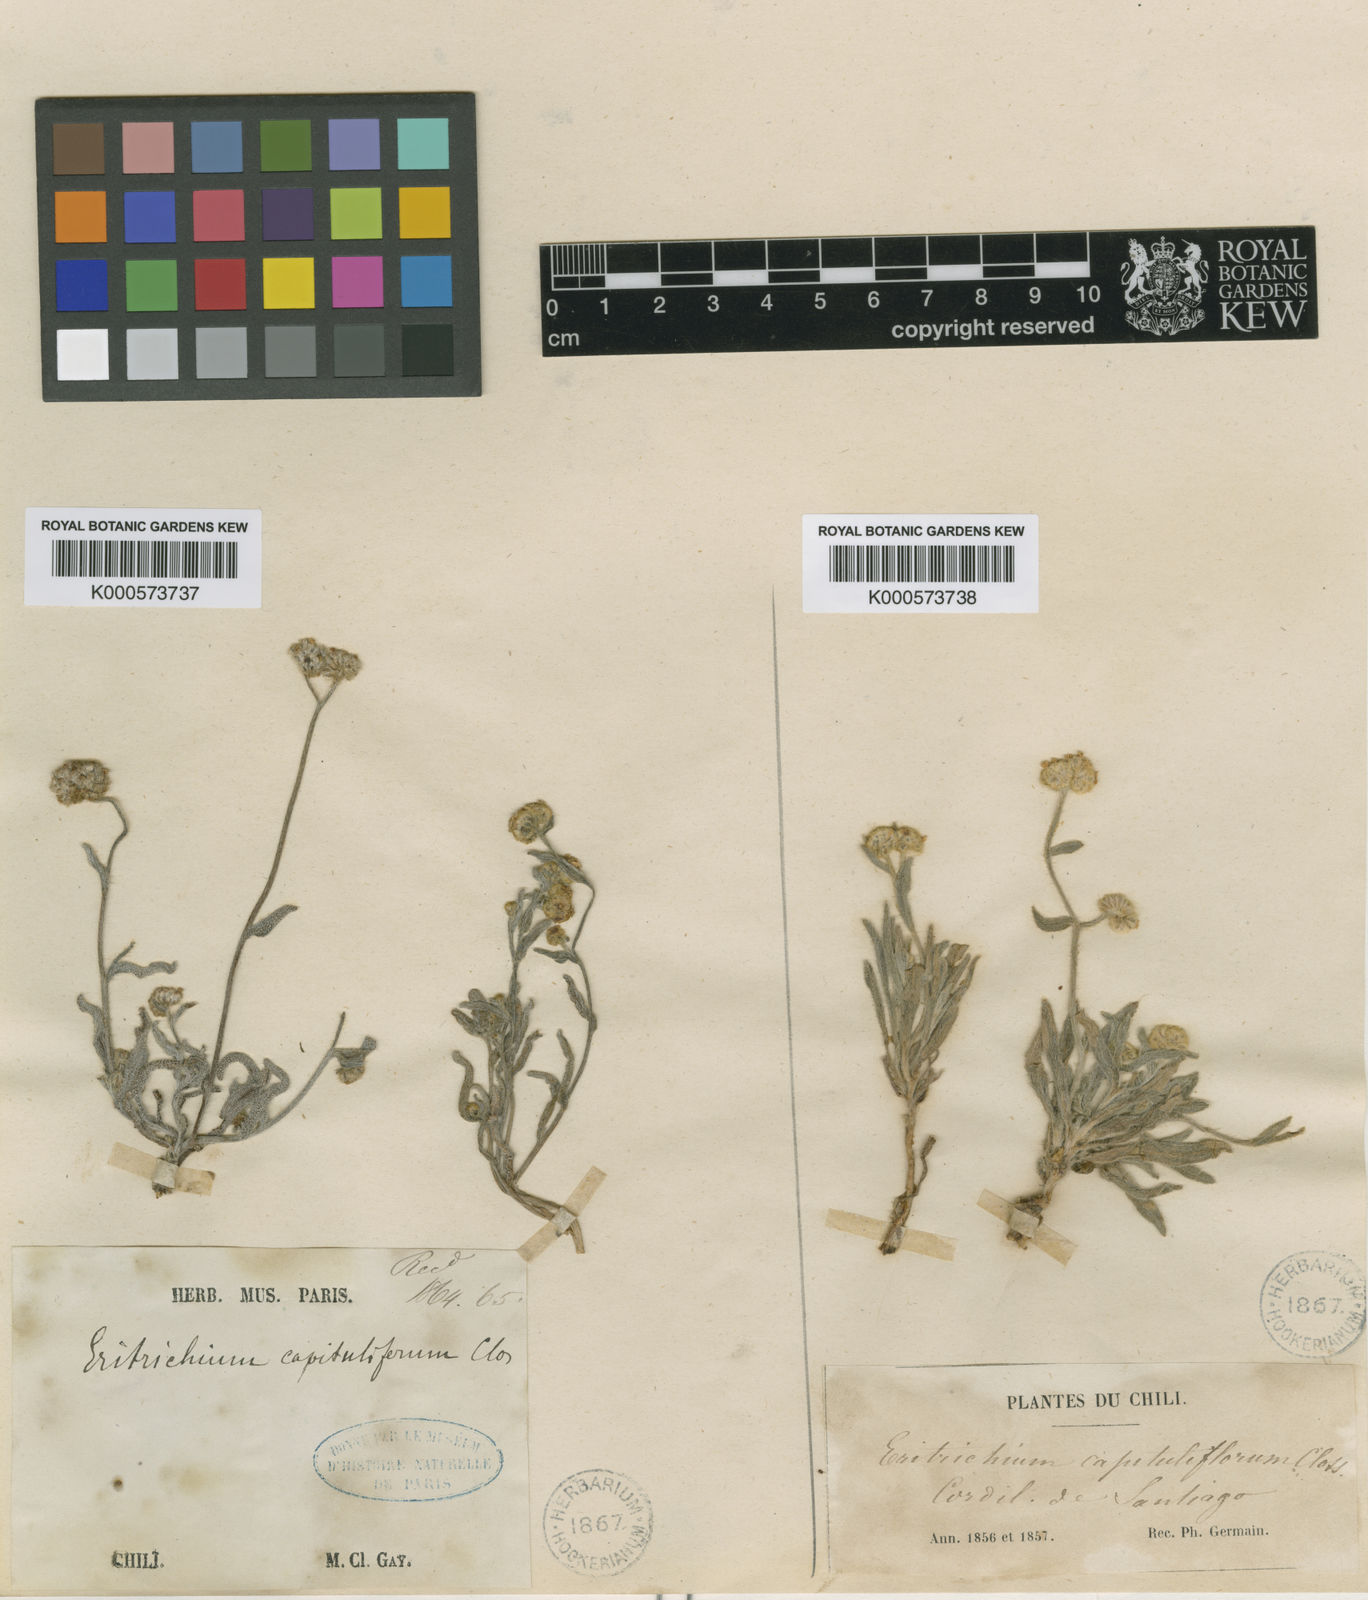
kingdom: Plantae
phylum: Tracheophyta
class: Magnoliopsida
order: Boraginales
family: Boraginaceae
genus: Cryptantha
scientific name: Cryptantha capituliflora
